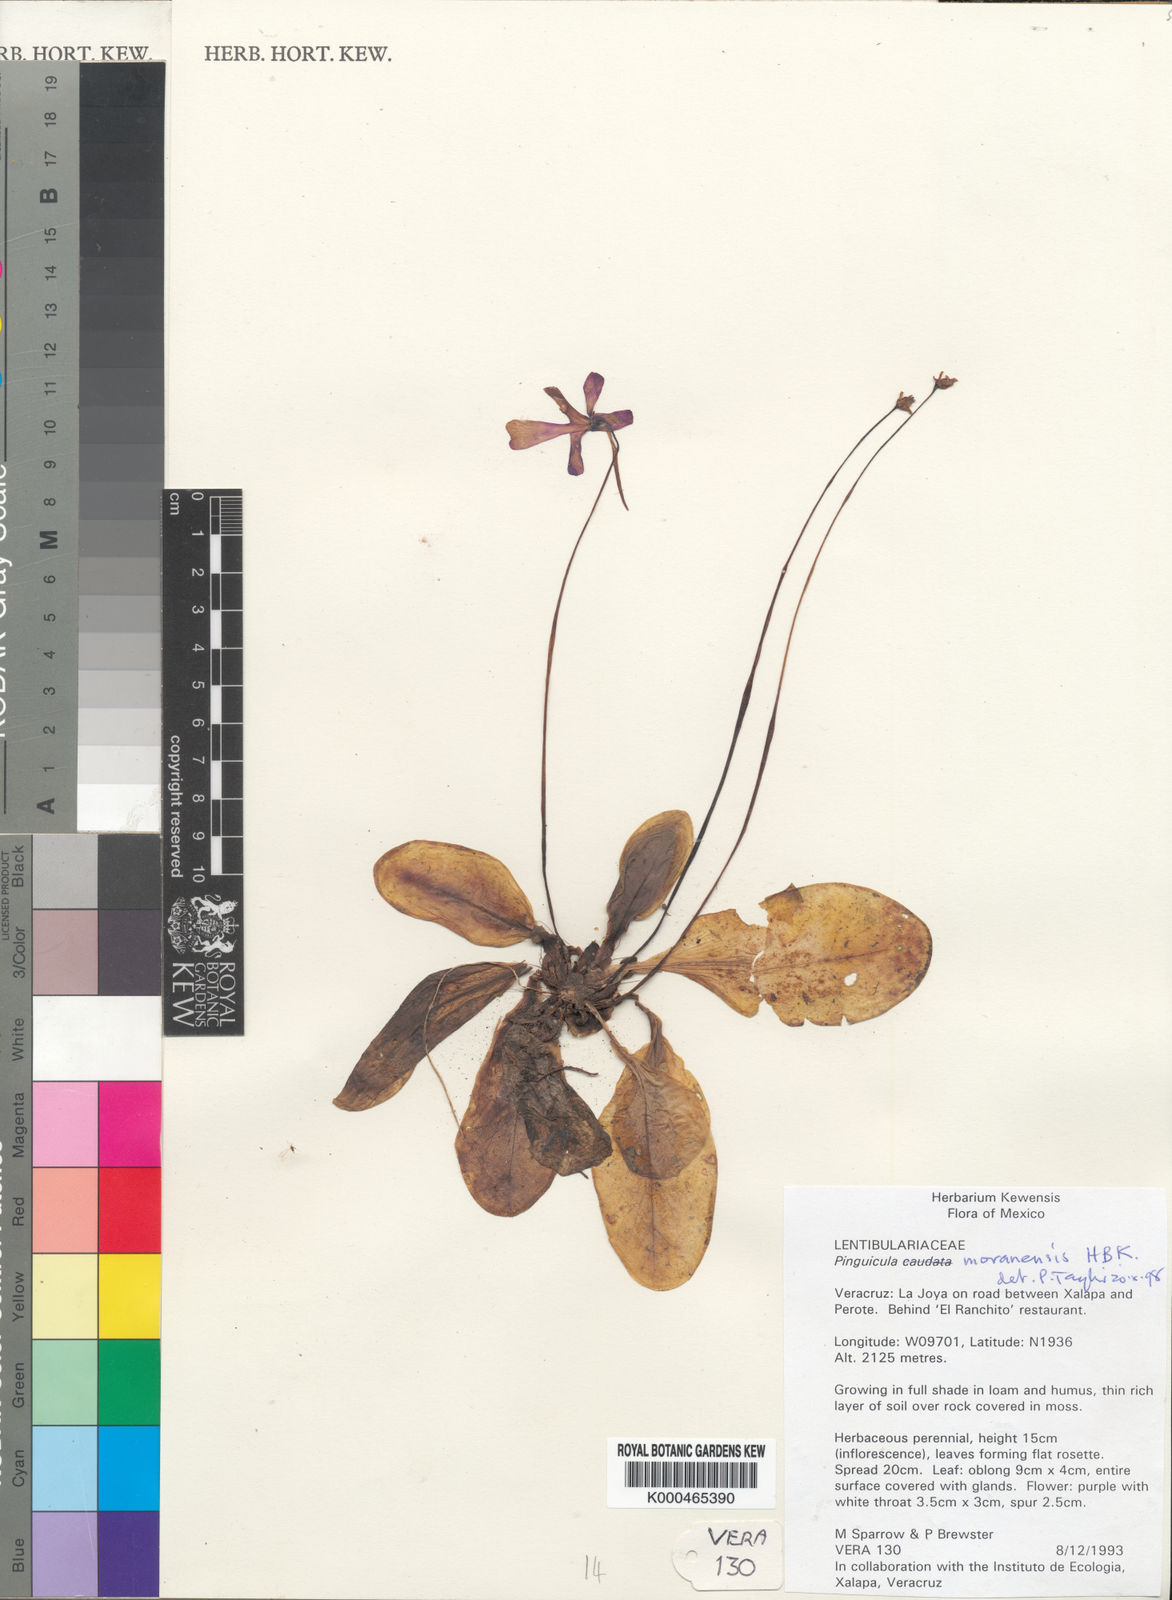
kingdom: Plantae
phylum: Tracheophyta
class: Magnoliopsida
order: Lamiales
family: Lentibulariaceae
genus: Pinguicula
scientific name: Pinguicula caudata
